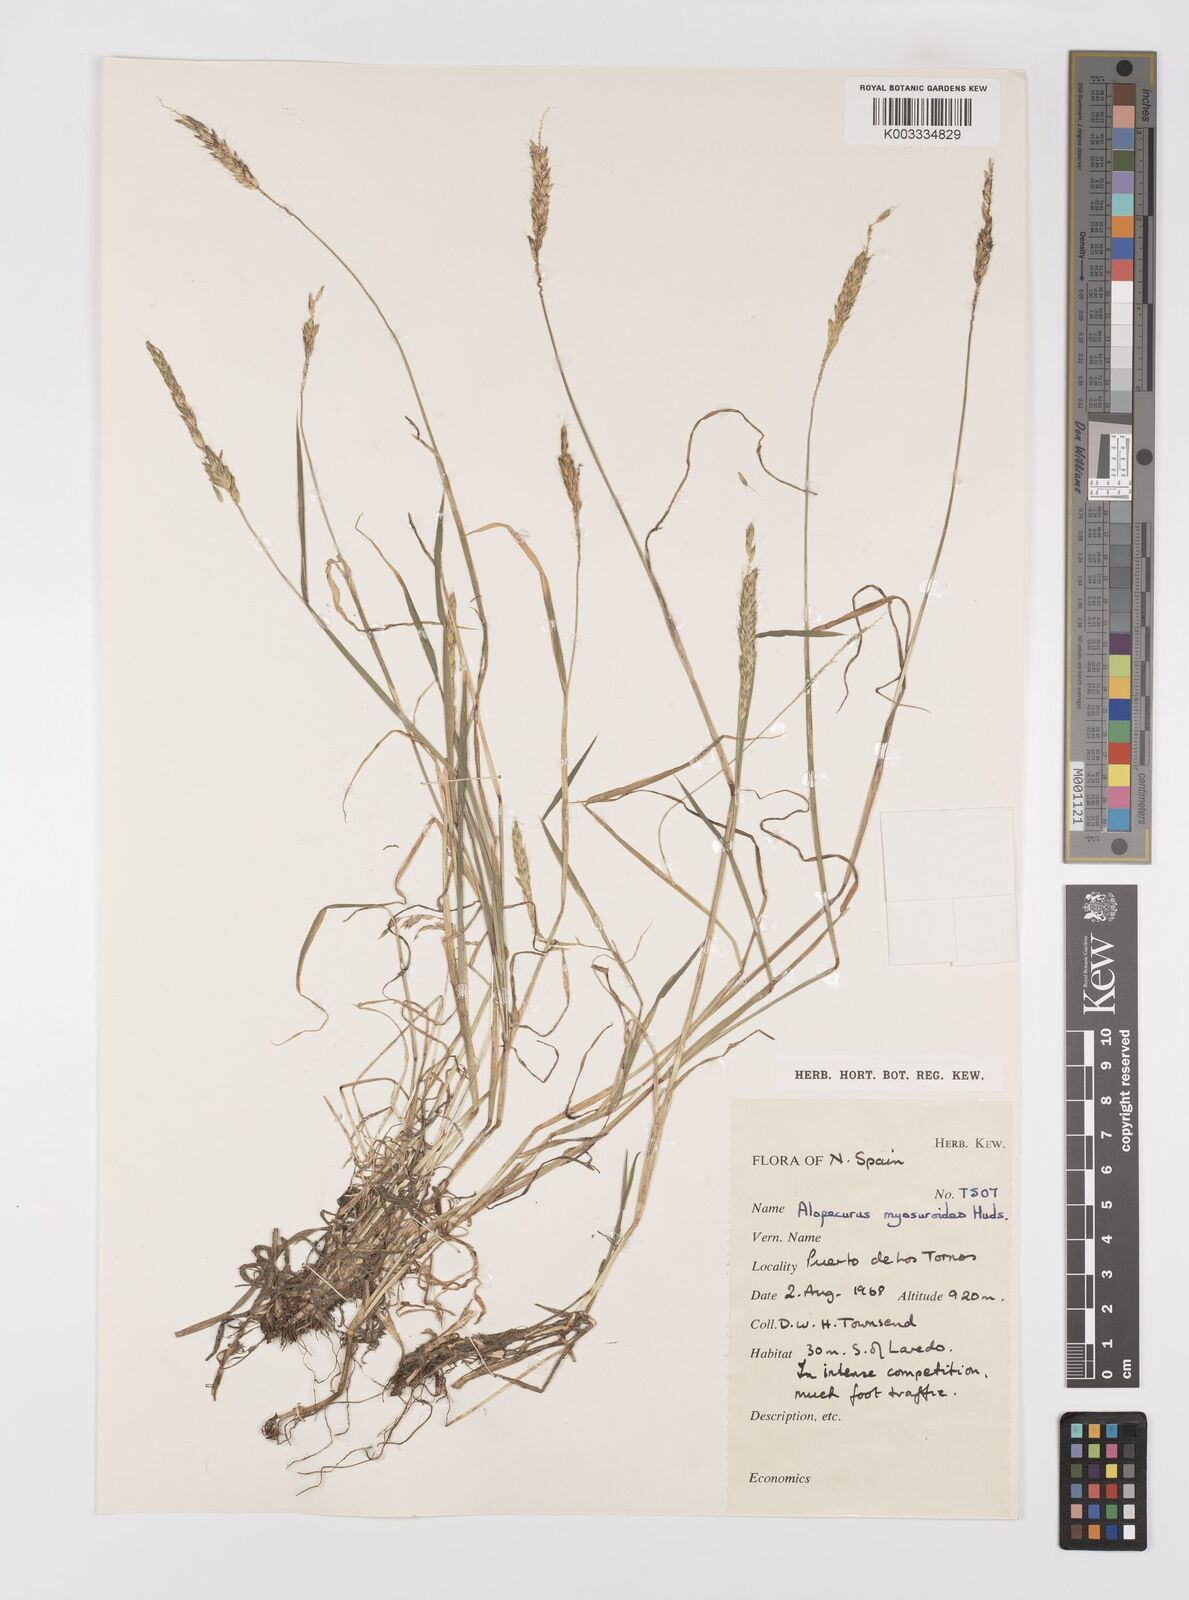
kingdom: Plantae
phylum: Tracheophyta
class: Liliopsida
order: Poales
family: Poaceae
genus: Alopecurus
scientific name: Alopecurus myosuroides
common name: Black-grass
